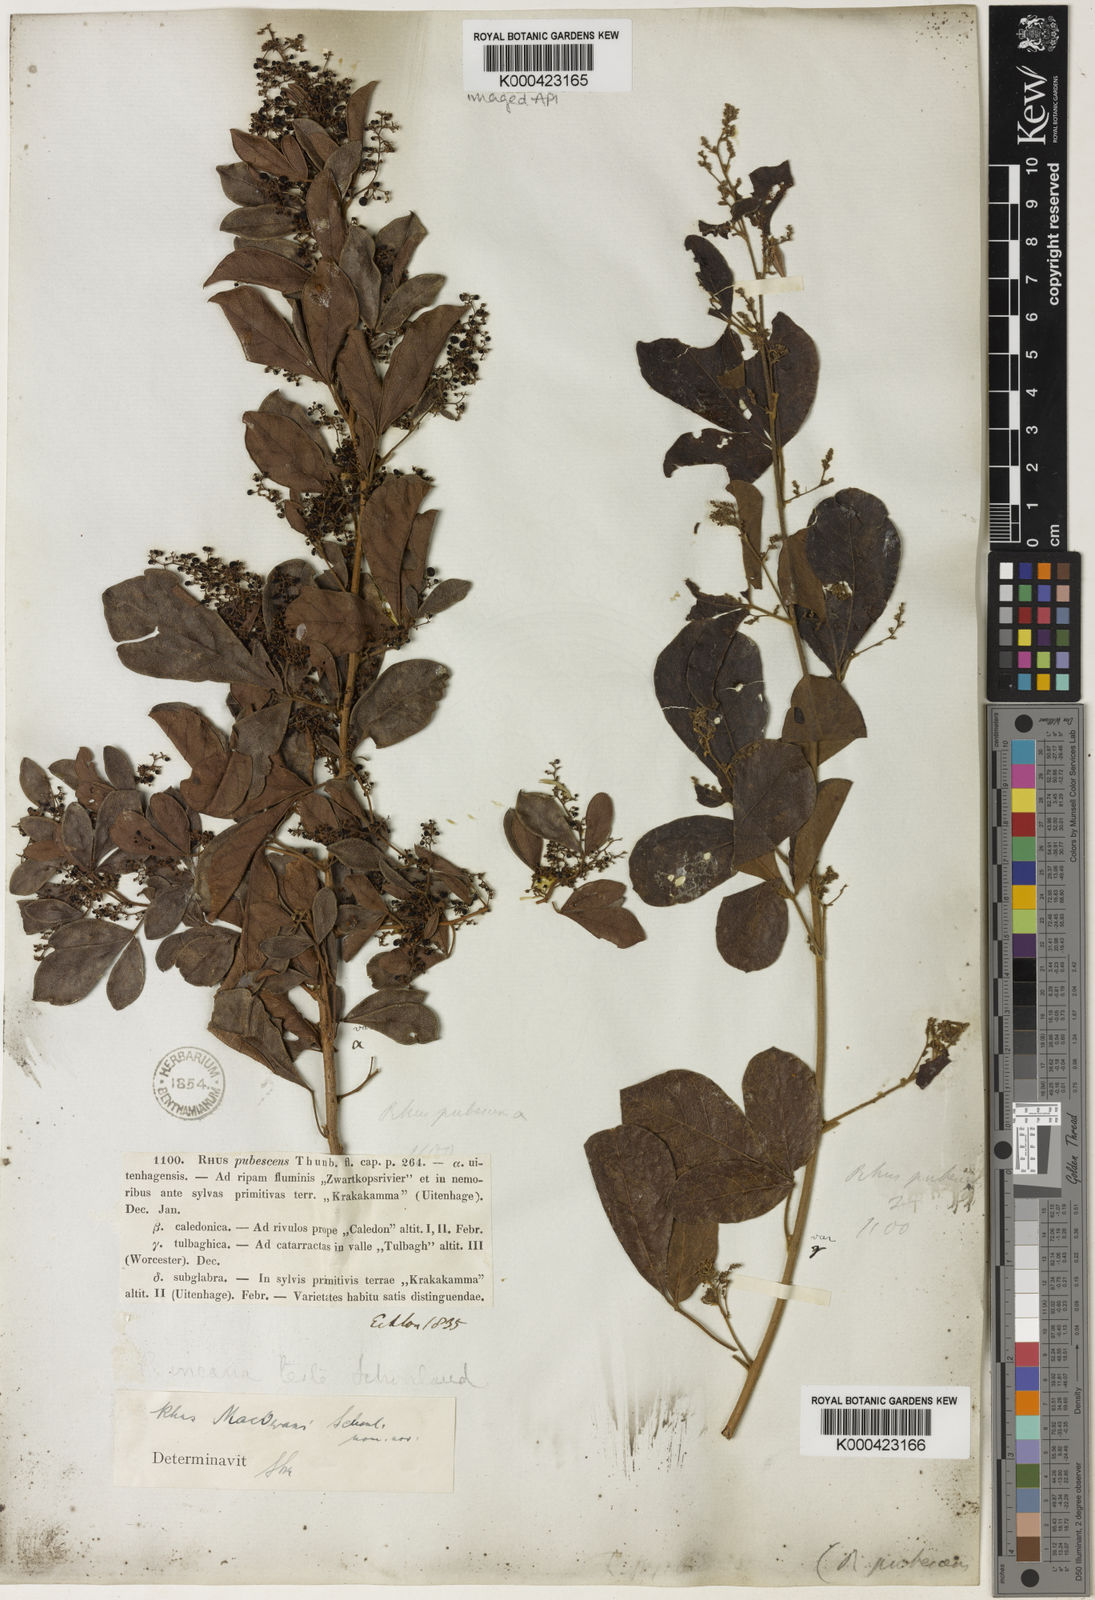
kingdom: Plantae
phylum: Tracheophyta
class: Magnoliopsida
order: Sapindales
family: Anacardiaceae
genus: Rhus
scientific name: Rhus
